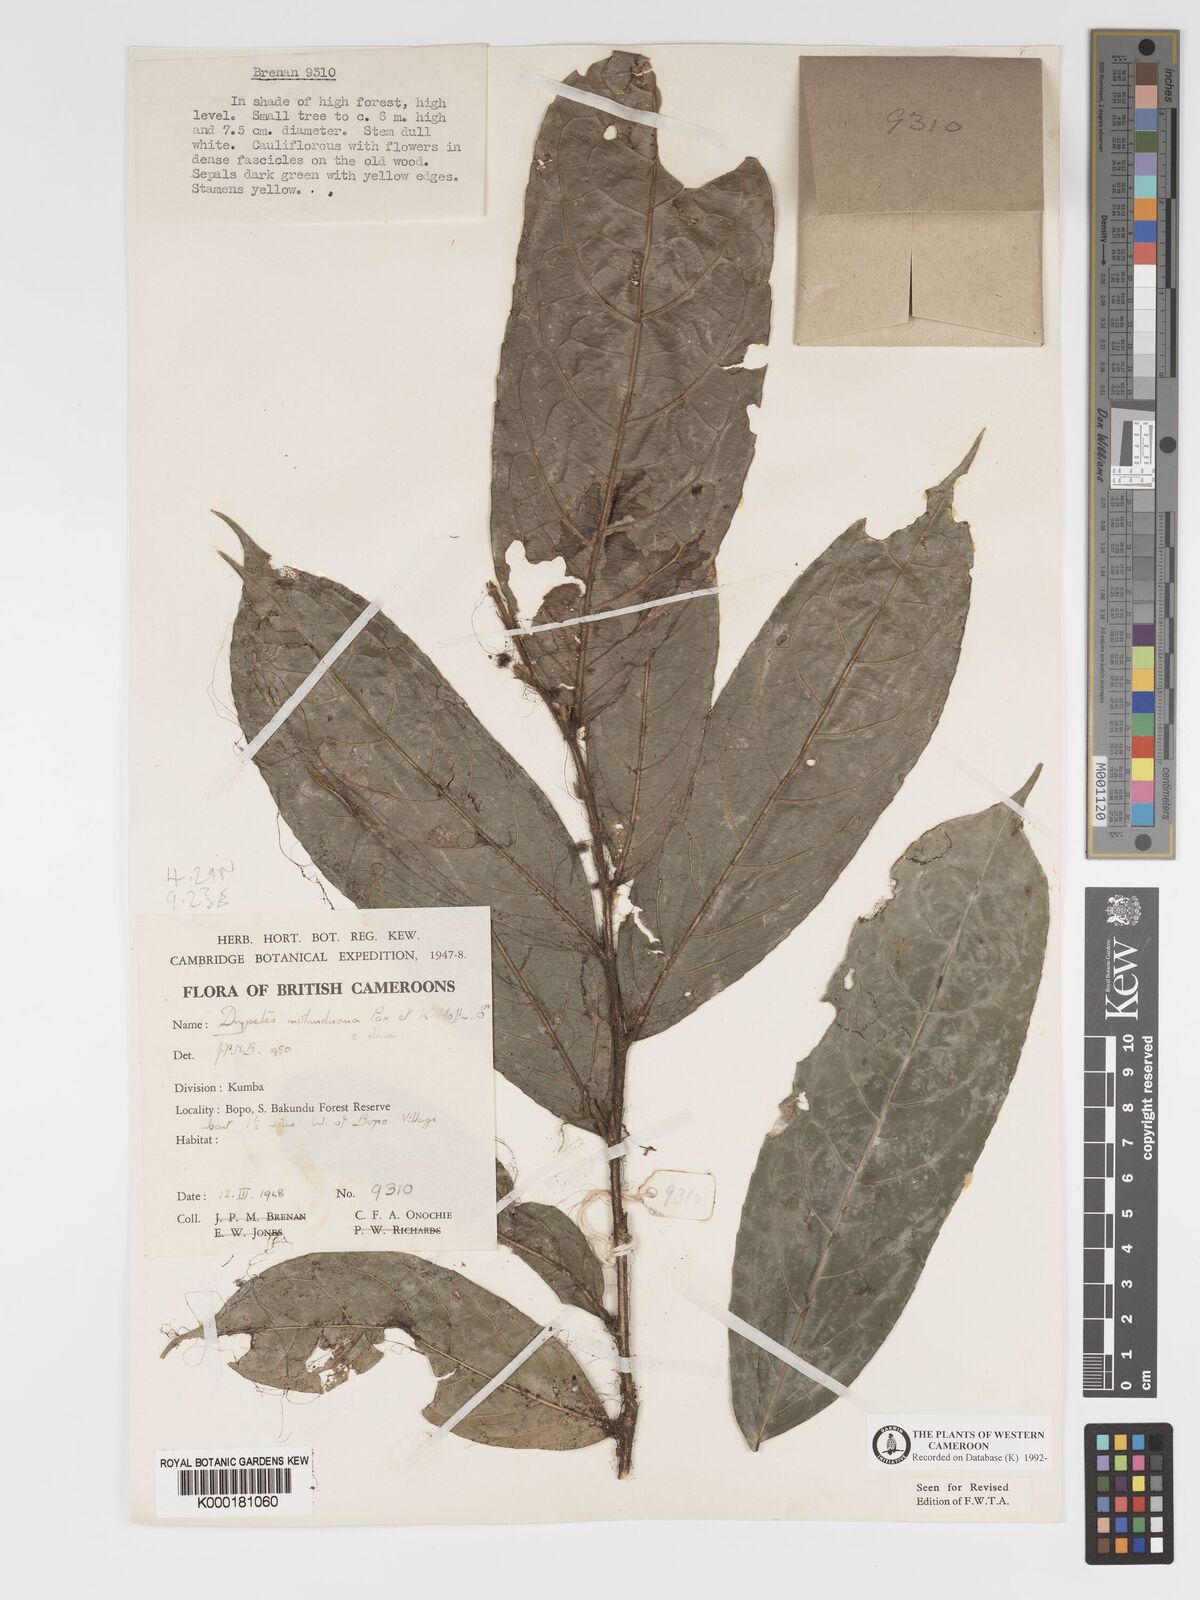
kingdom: Plantae
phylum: Tracheophyta
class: Magnoliopsida
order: Malpighiales
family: Putranjivaceae
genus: Drypetes
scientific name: Drypetes molunduana
